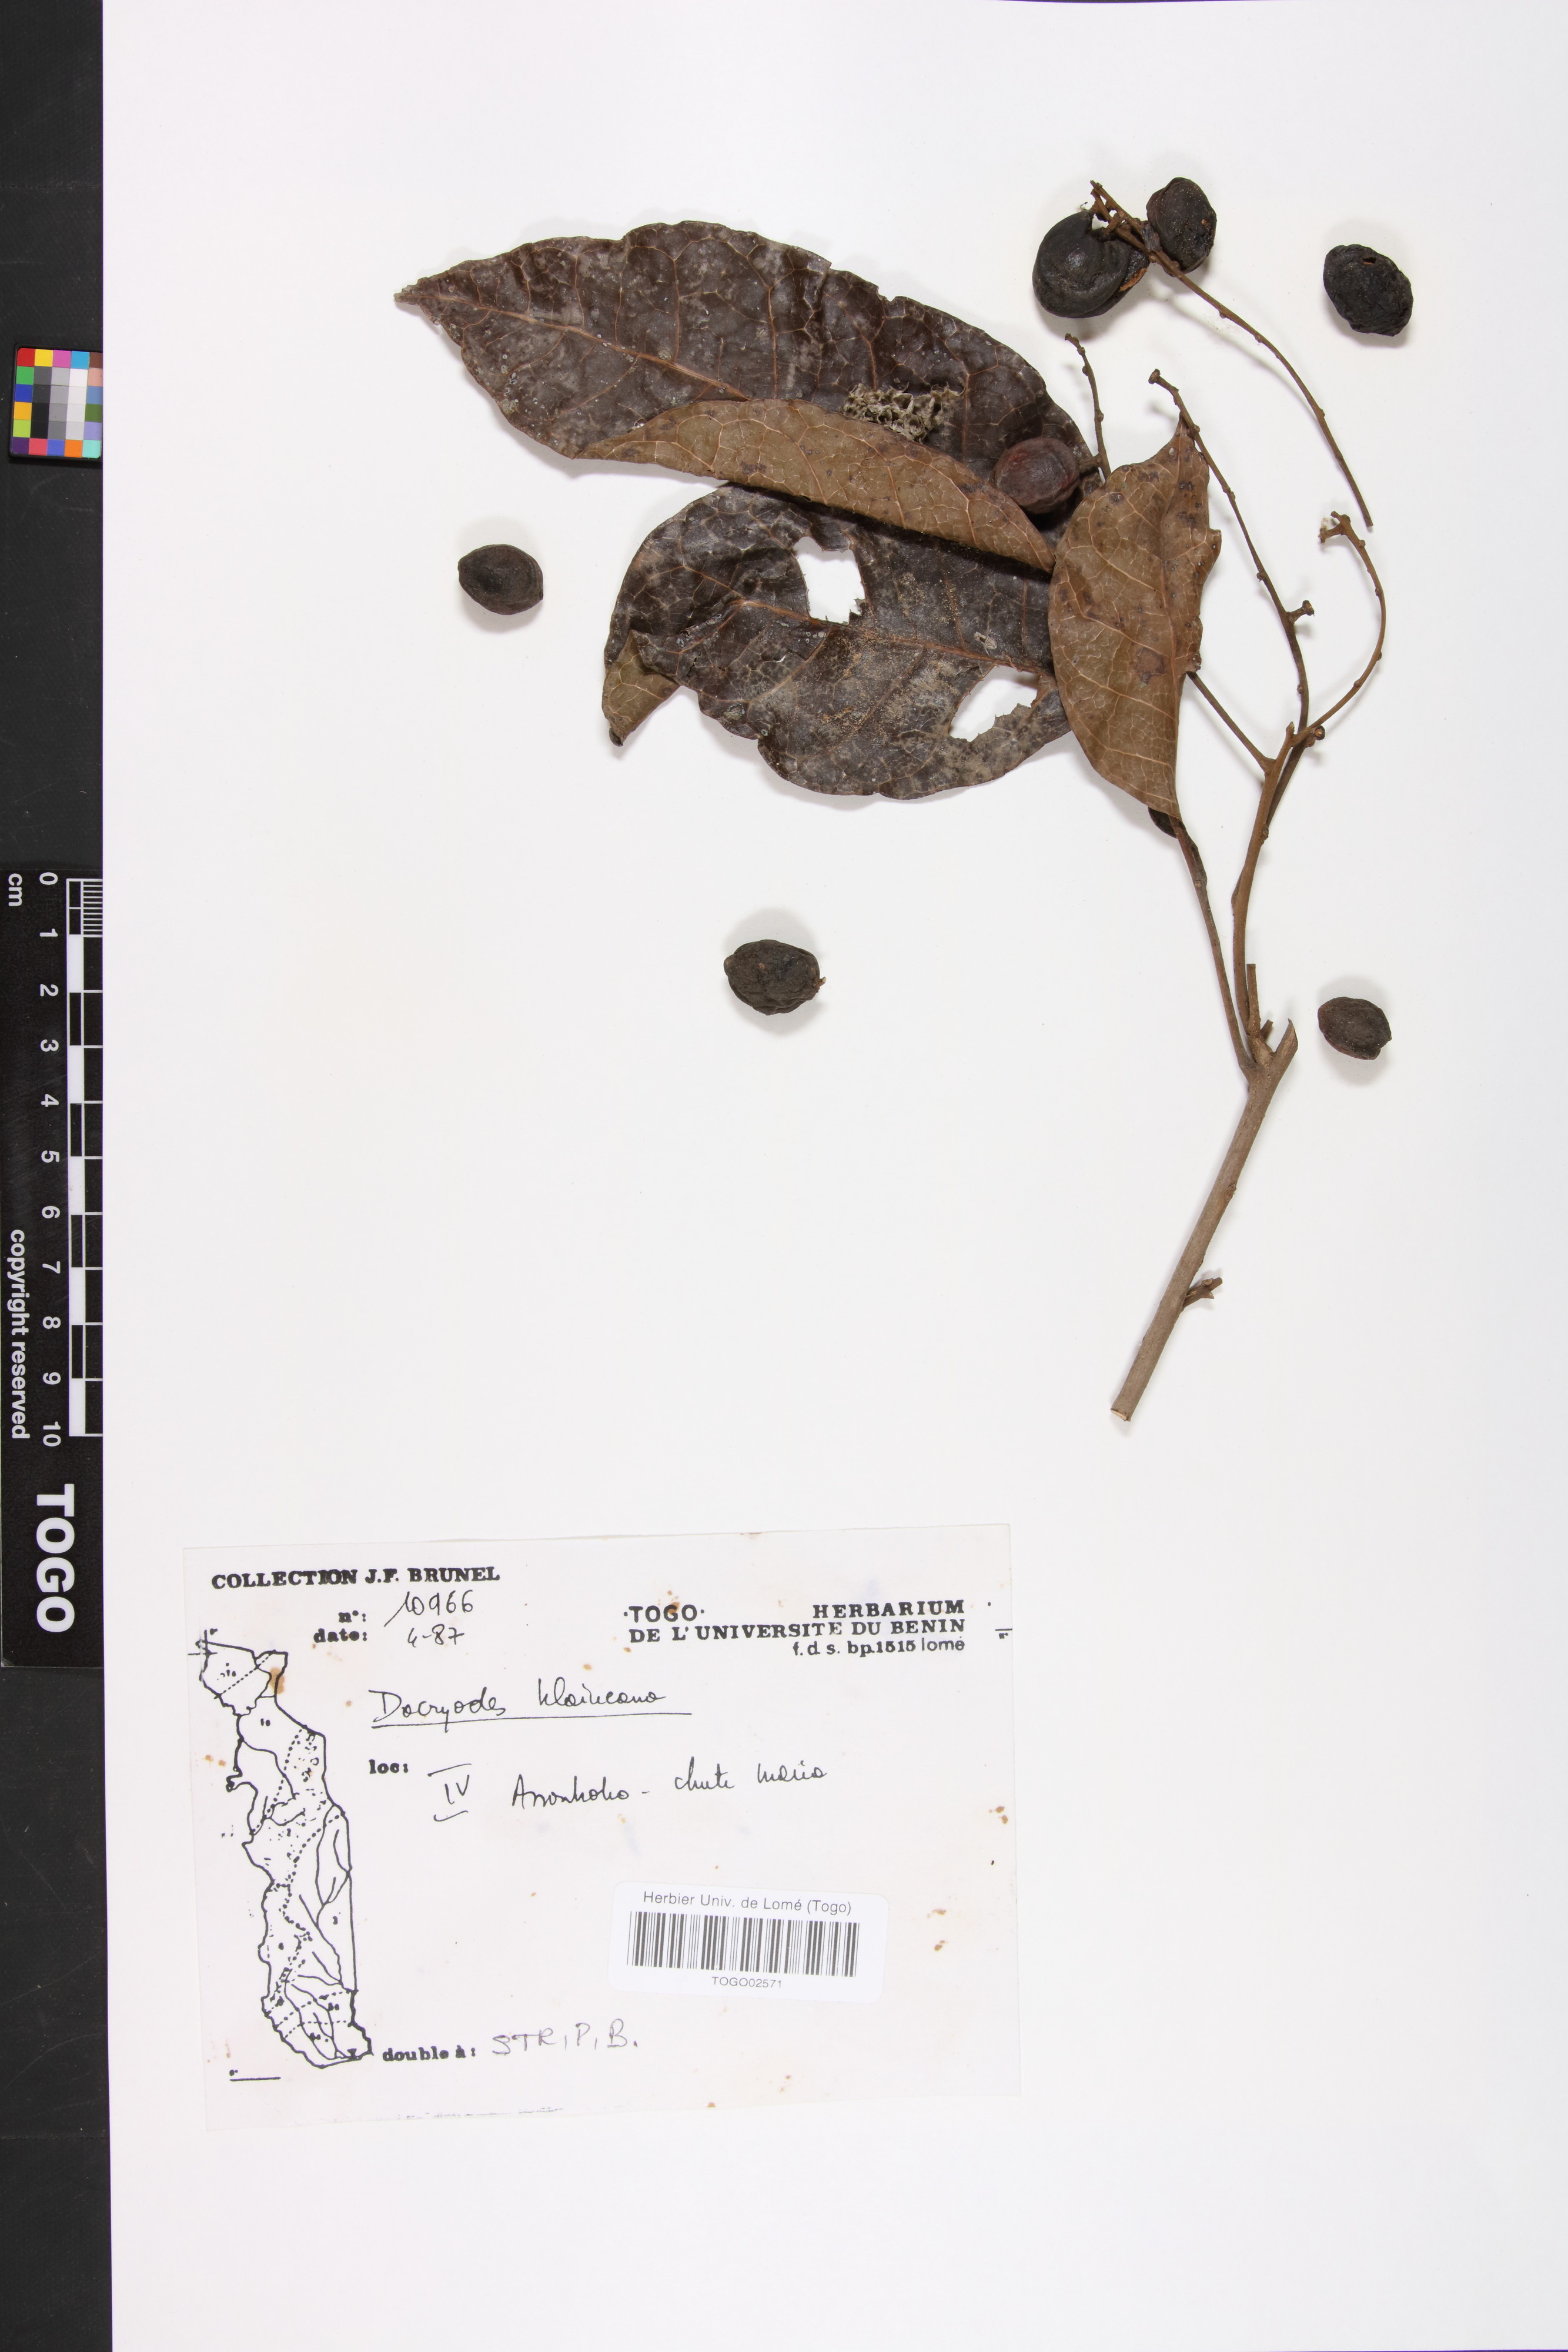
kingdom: Plantae
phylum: Tracheophyta
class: Magnoliopsida
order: Sapindales
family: Burseraceae
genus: Pachylobus
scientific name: Pachylobus klaineana
